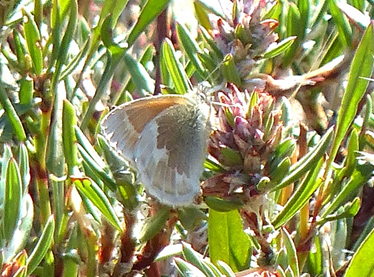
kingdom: Animalia
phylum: Arthropoda
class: Insecta
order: Lepidoptera
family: Nymphalidae
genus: Coenonympha
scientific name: Coenonympha tullia
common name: Large Heath
